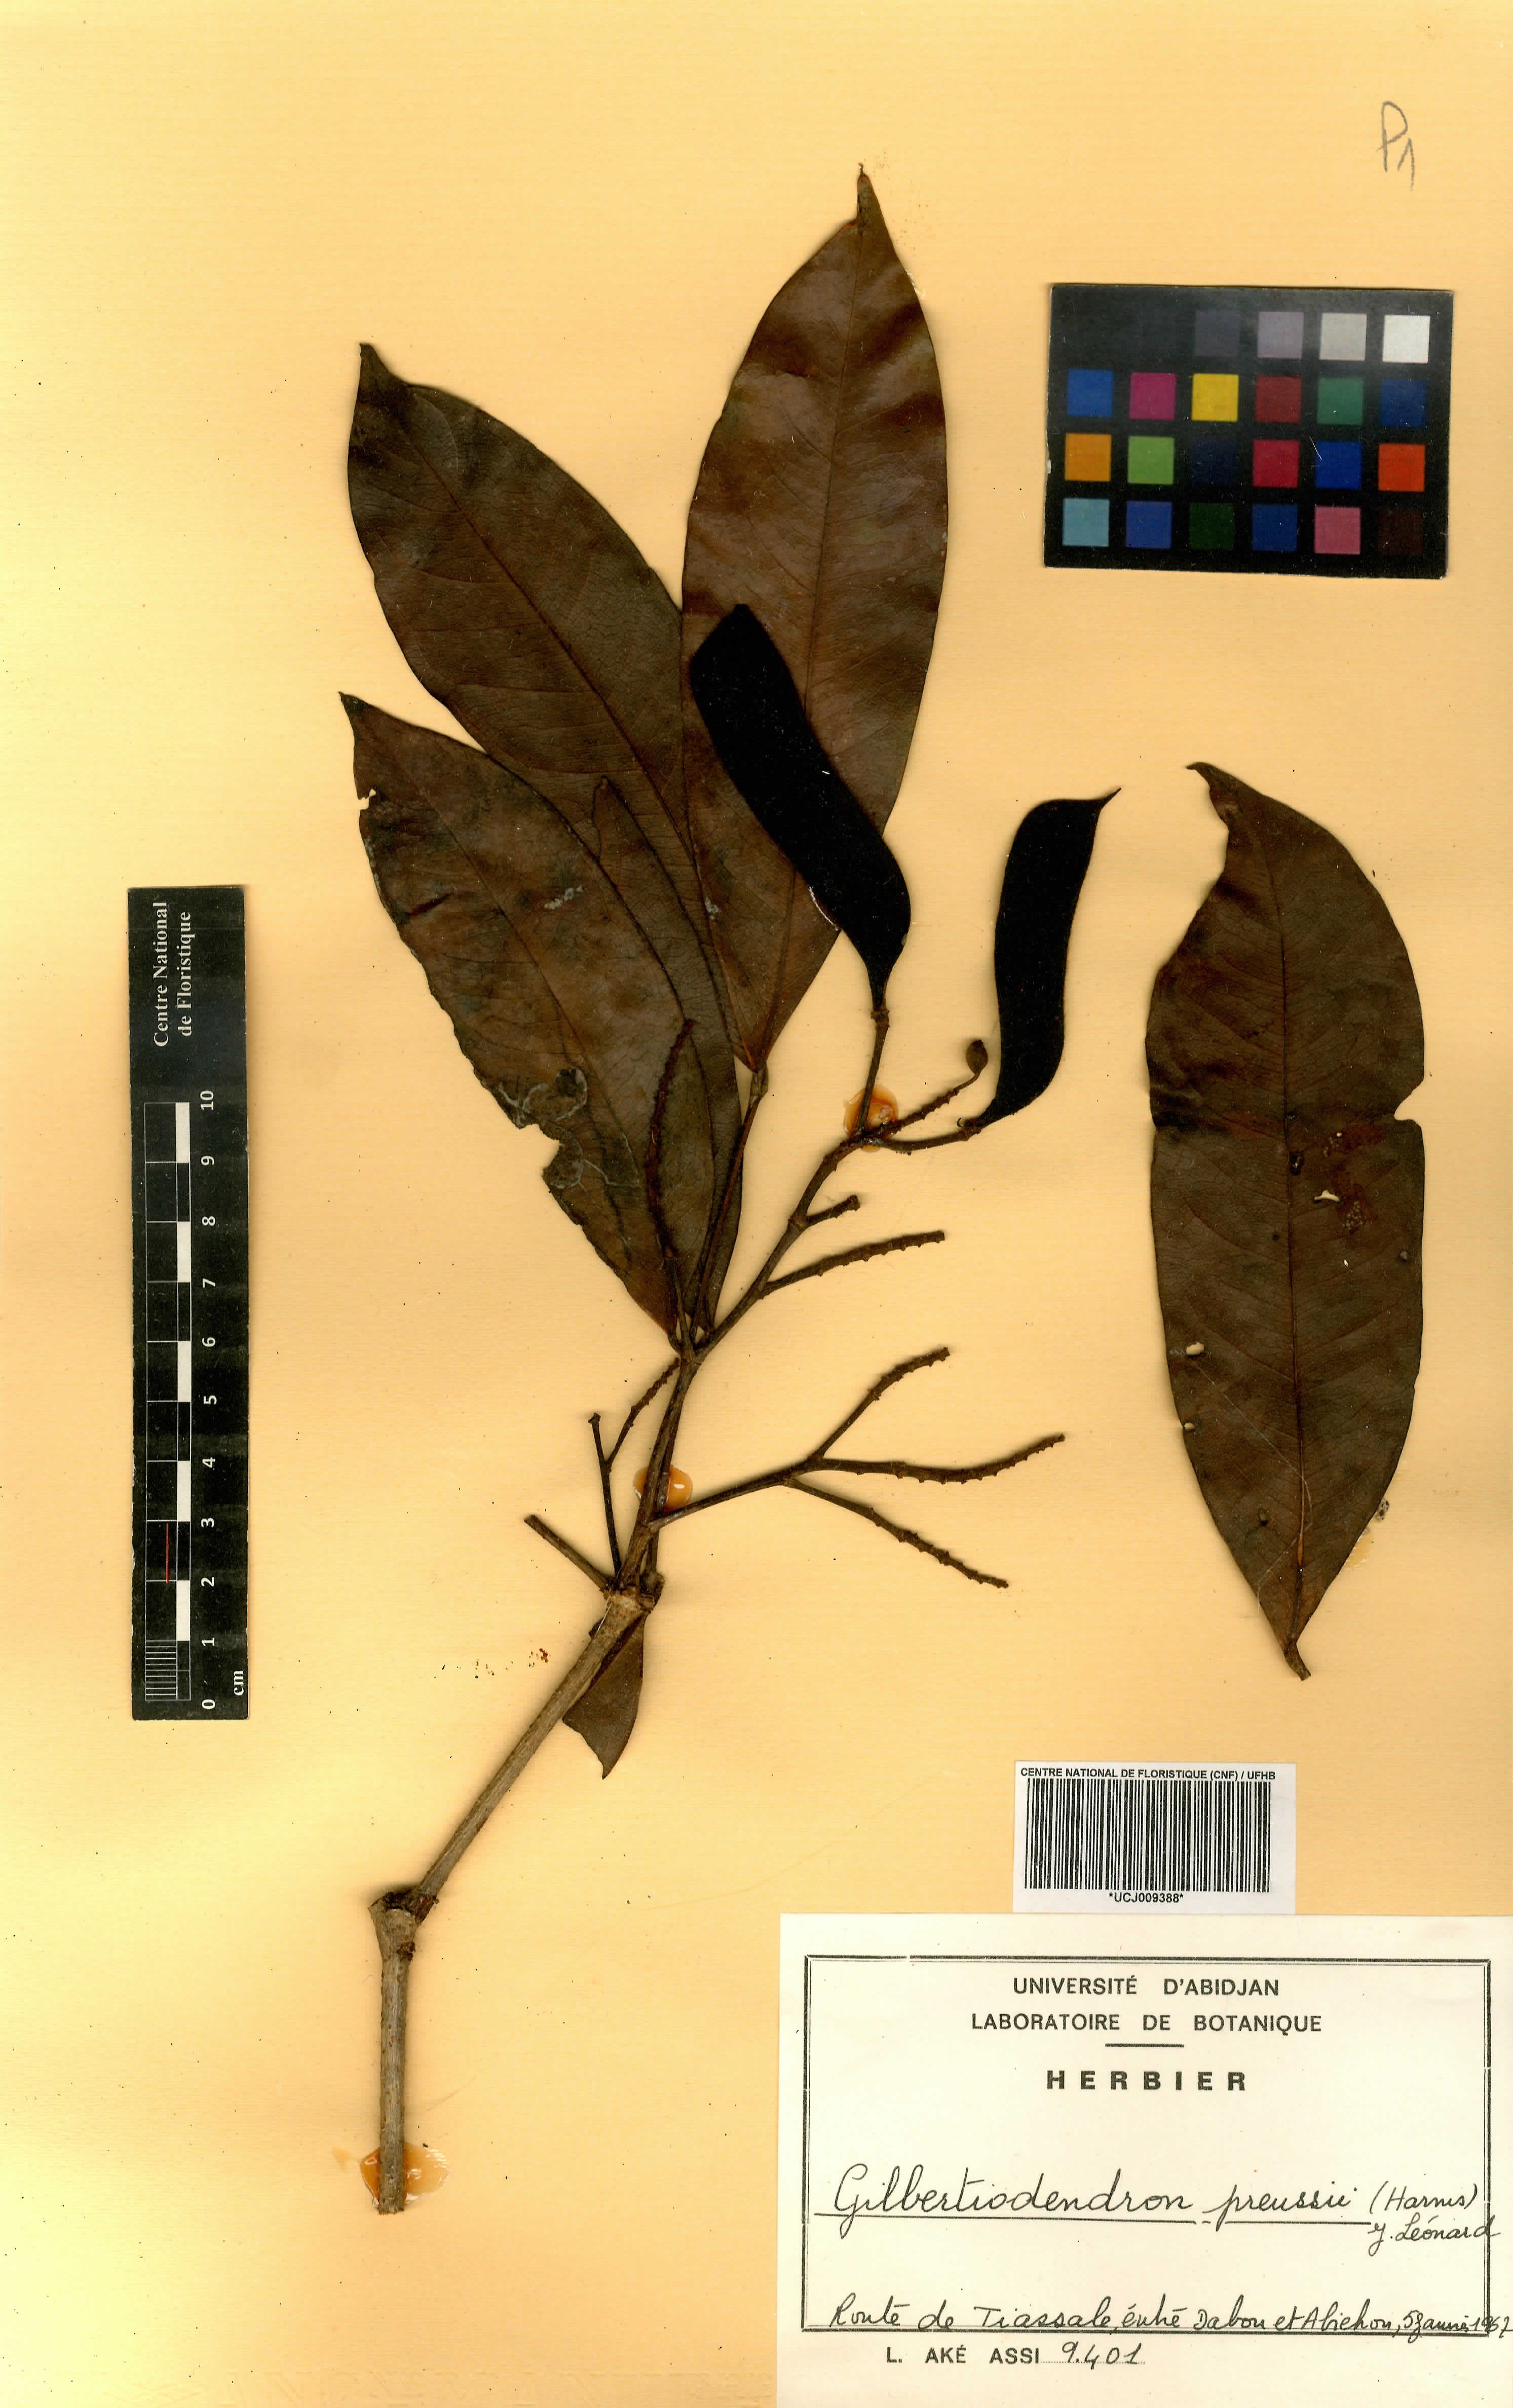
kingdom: Plantae
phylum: Tracheophyta
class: Magnoliopsida
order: Fabales
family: Fabaceae
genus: Gilbertiodendron
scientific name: Gilbertiodendron preussii
